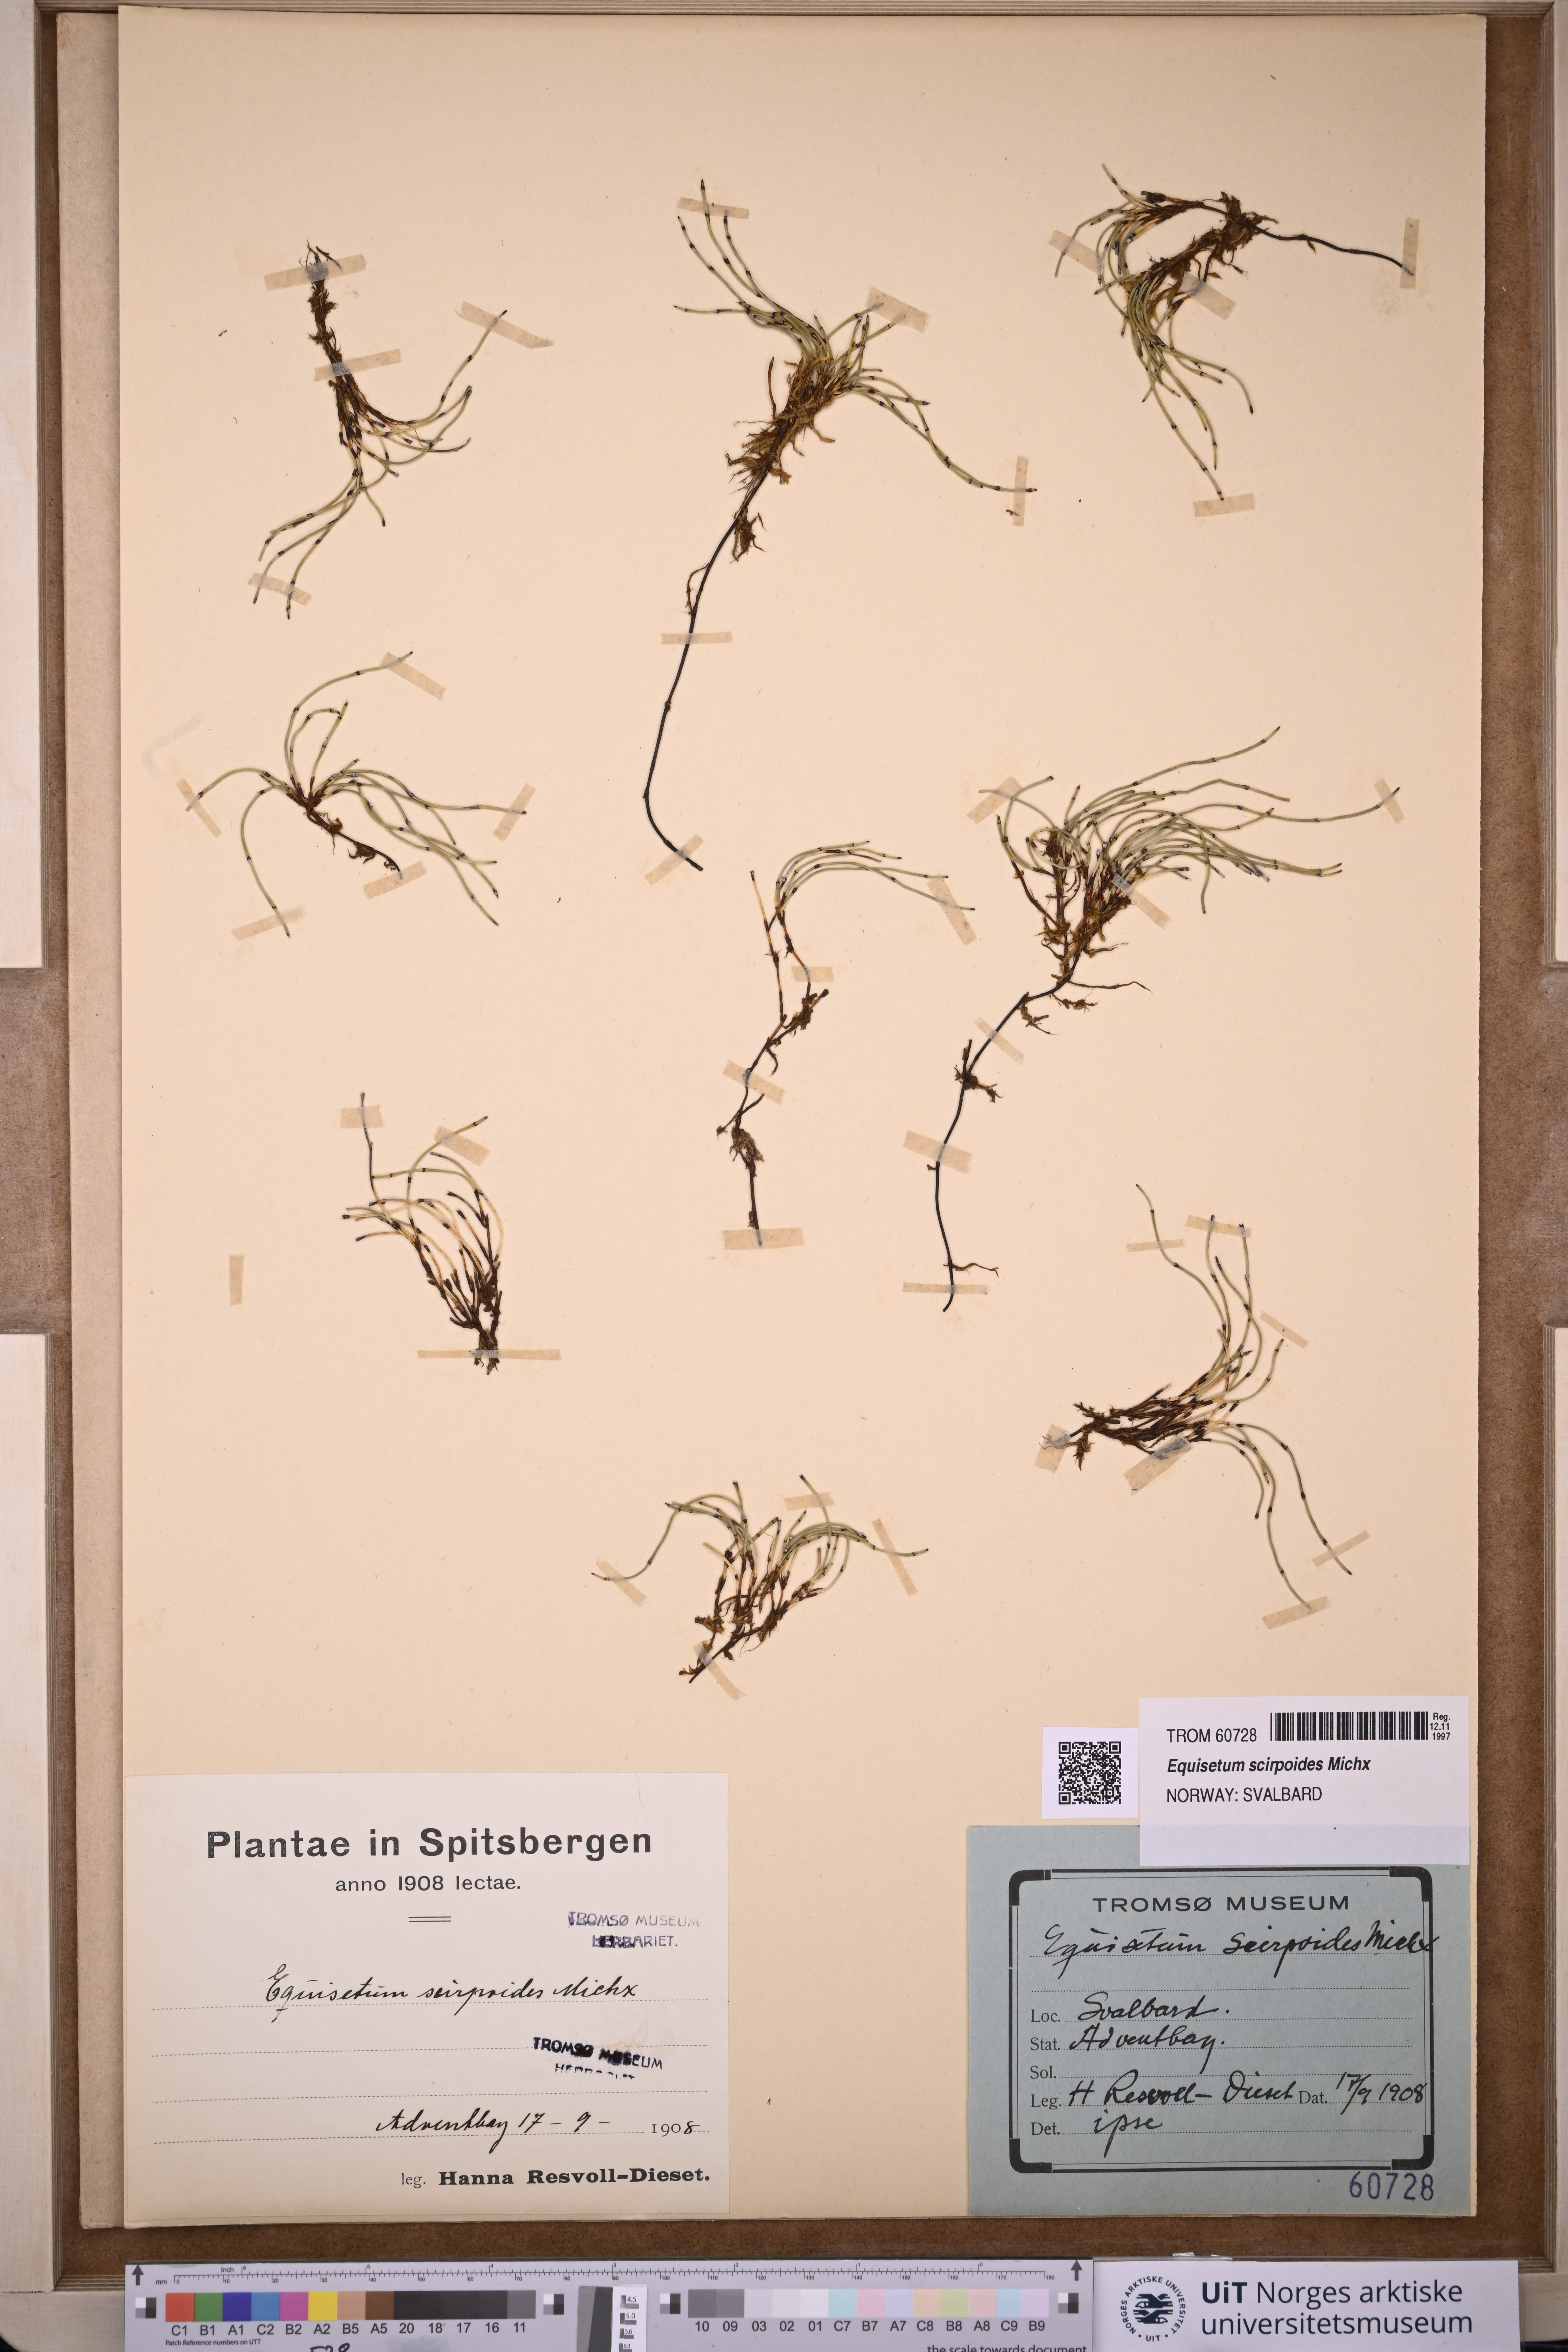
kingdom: Plantae
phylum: Tracheophyta
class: Polypodiopsida
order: Equisetales
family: Equisetaceae
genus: Equisetum
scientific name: Equisetum scirpoides
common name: Delicate horsetail
